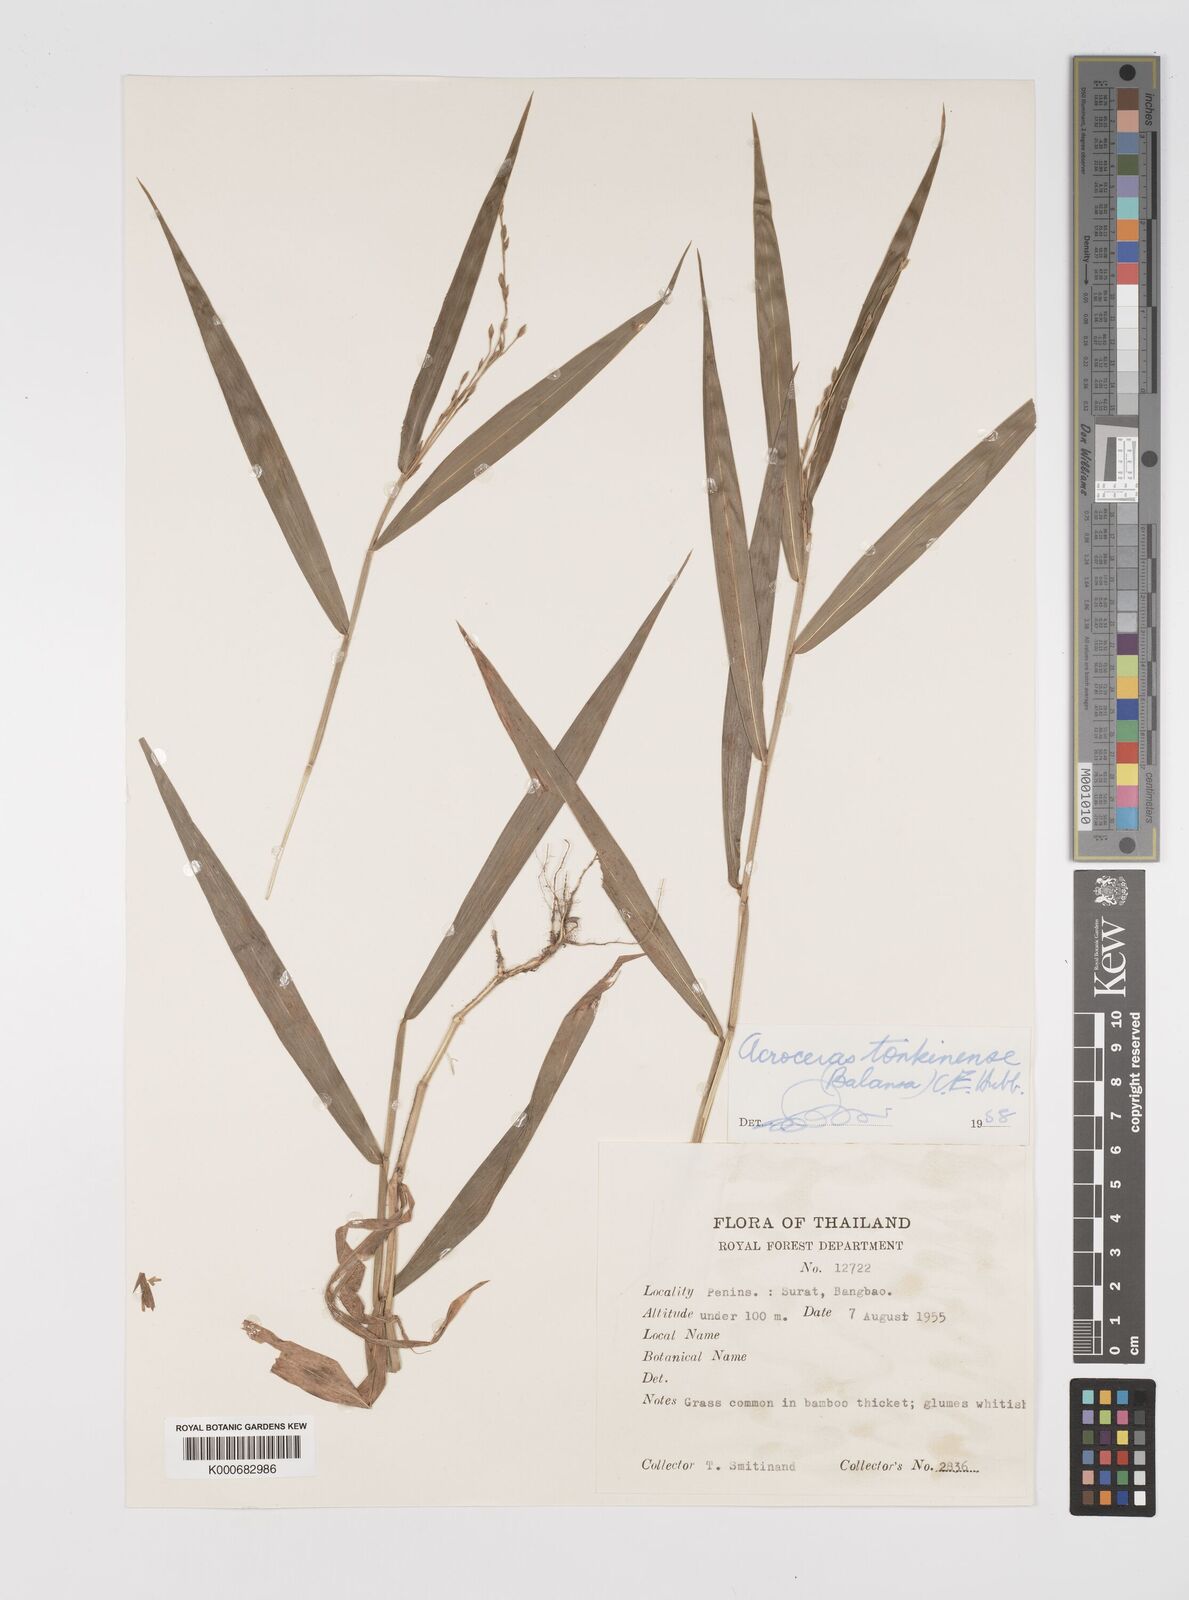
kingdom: Plantae
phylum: Tracheophyta
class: Liliopsida
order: Poales
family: Poaceae
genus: Acroceras
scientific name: Acroceras
